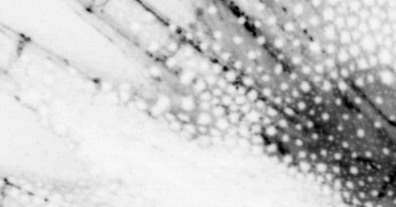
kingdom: Animalia
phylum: Chordata
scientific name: Chordata
